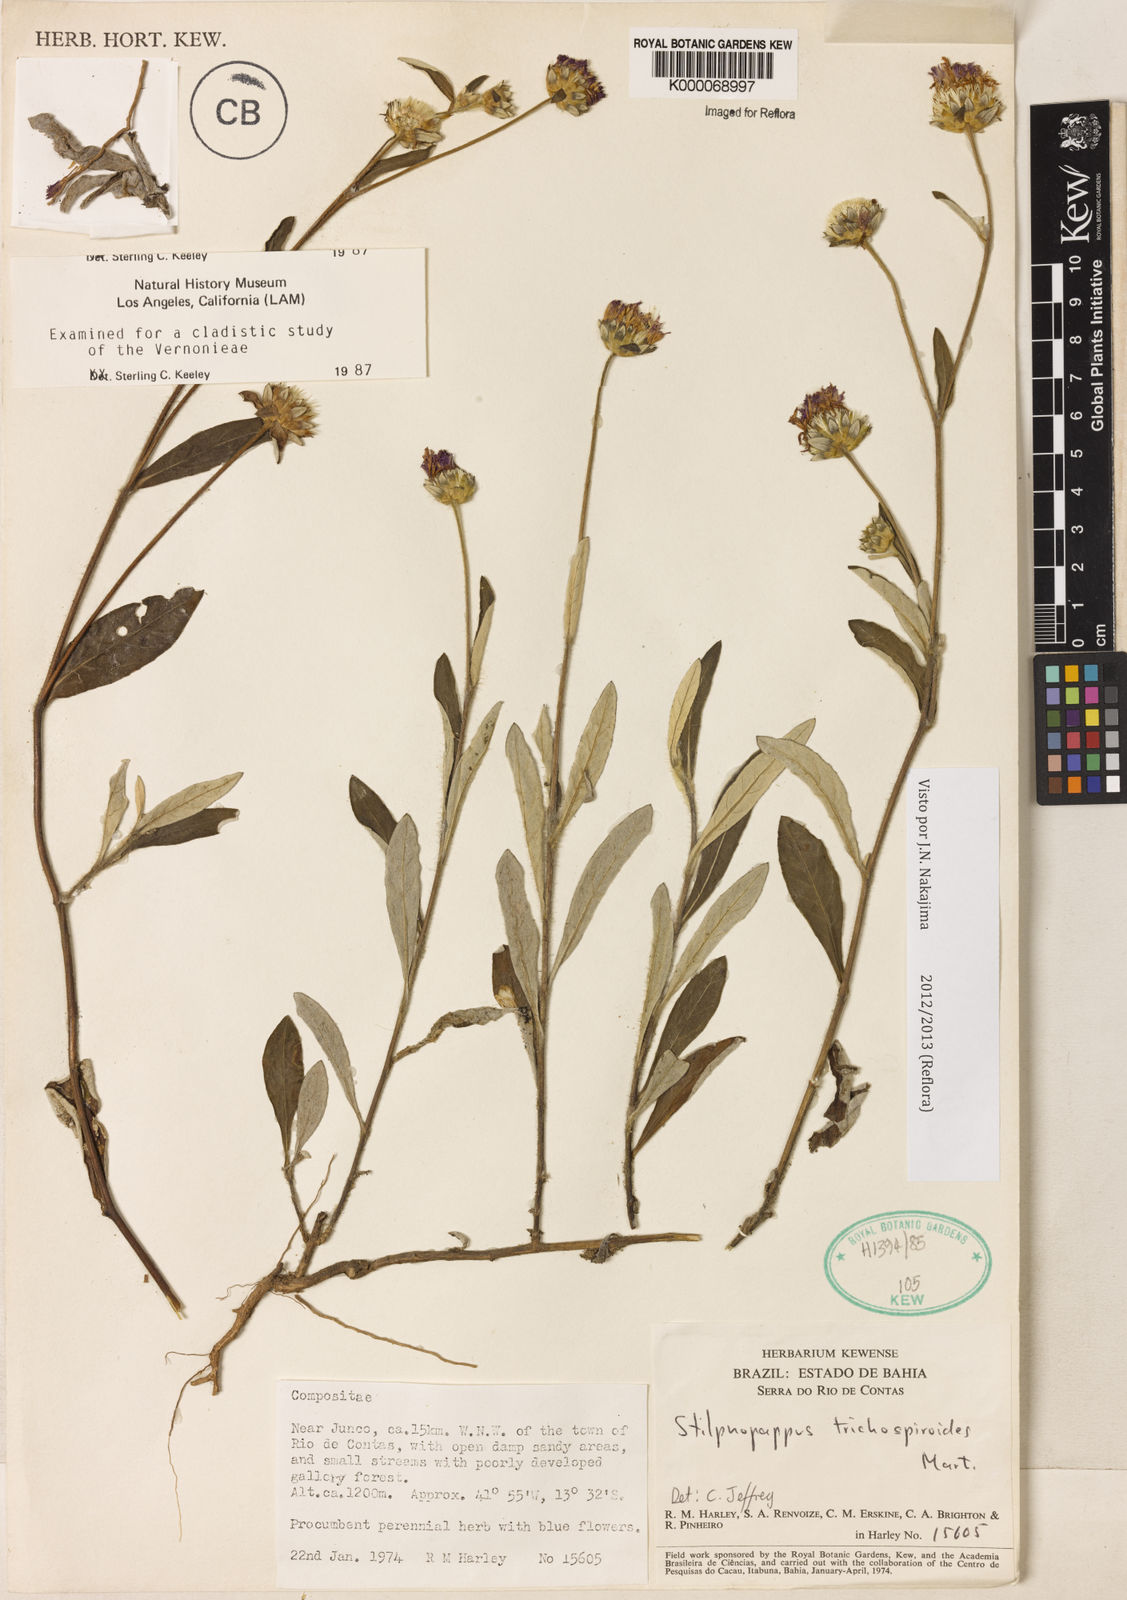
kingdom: Plantae
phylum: Tracheophyta
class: Magnoliopsida
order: Asterales
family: Asteraceae
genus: Stilpnopappus
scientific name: Stilpnopappus
